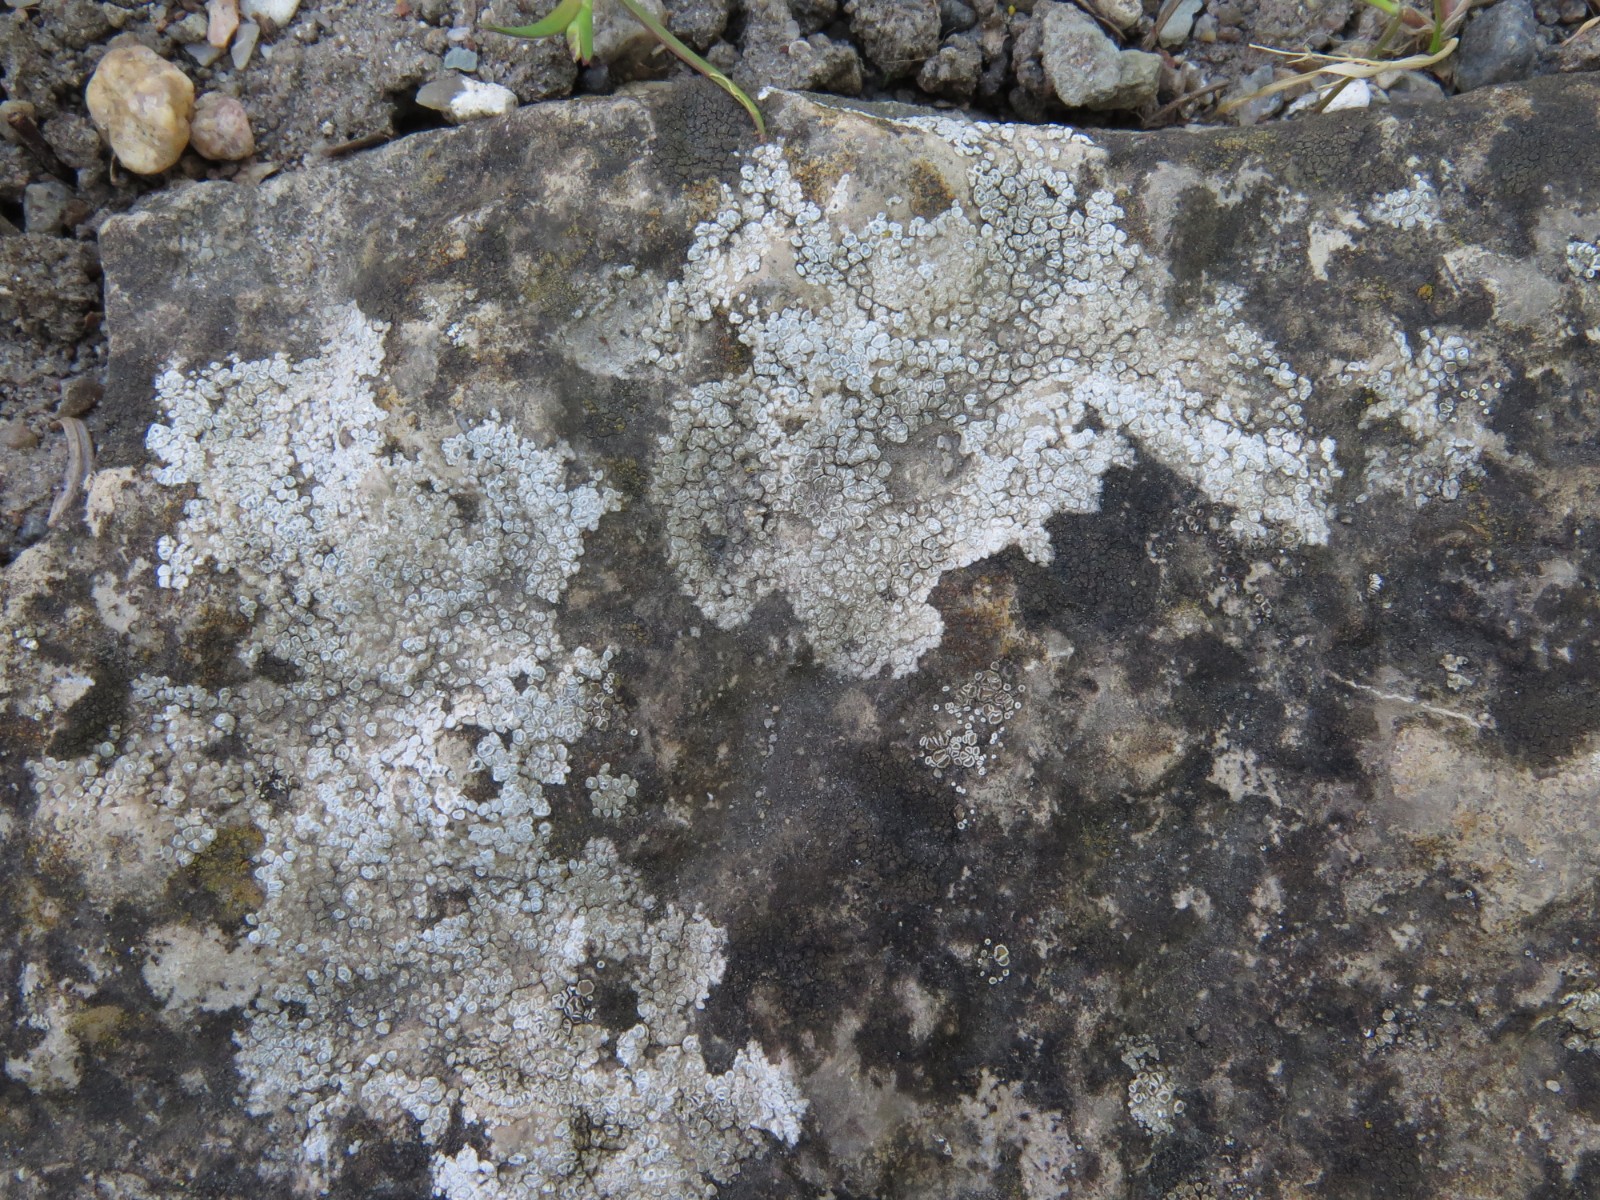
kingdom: Fungi
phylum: Ascomycota
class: Lecanoromycetes
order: Pertusariales
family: Megasporaceae
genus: Circinaria
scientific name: Circinaria contorta
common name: indviklet hulskivelav
